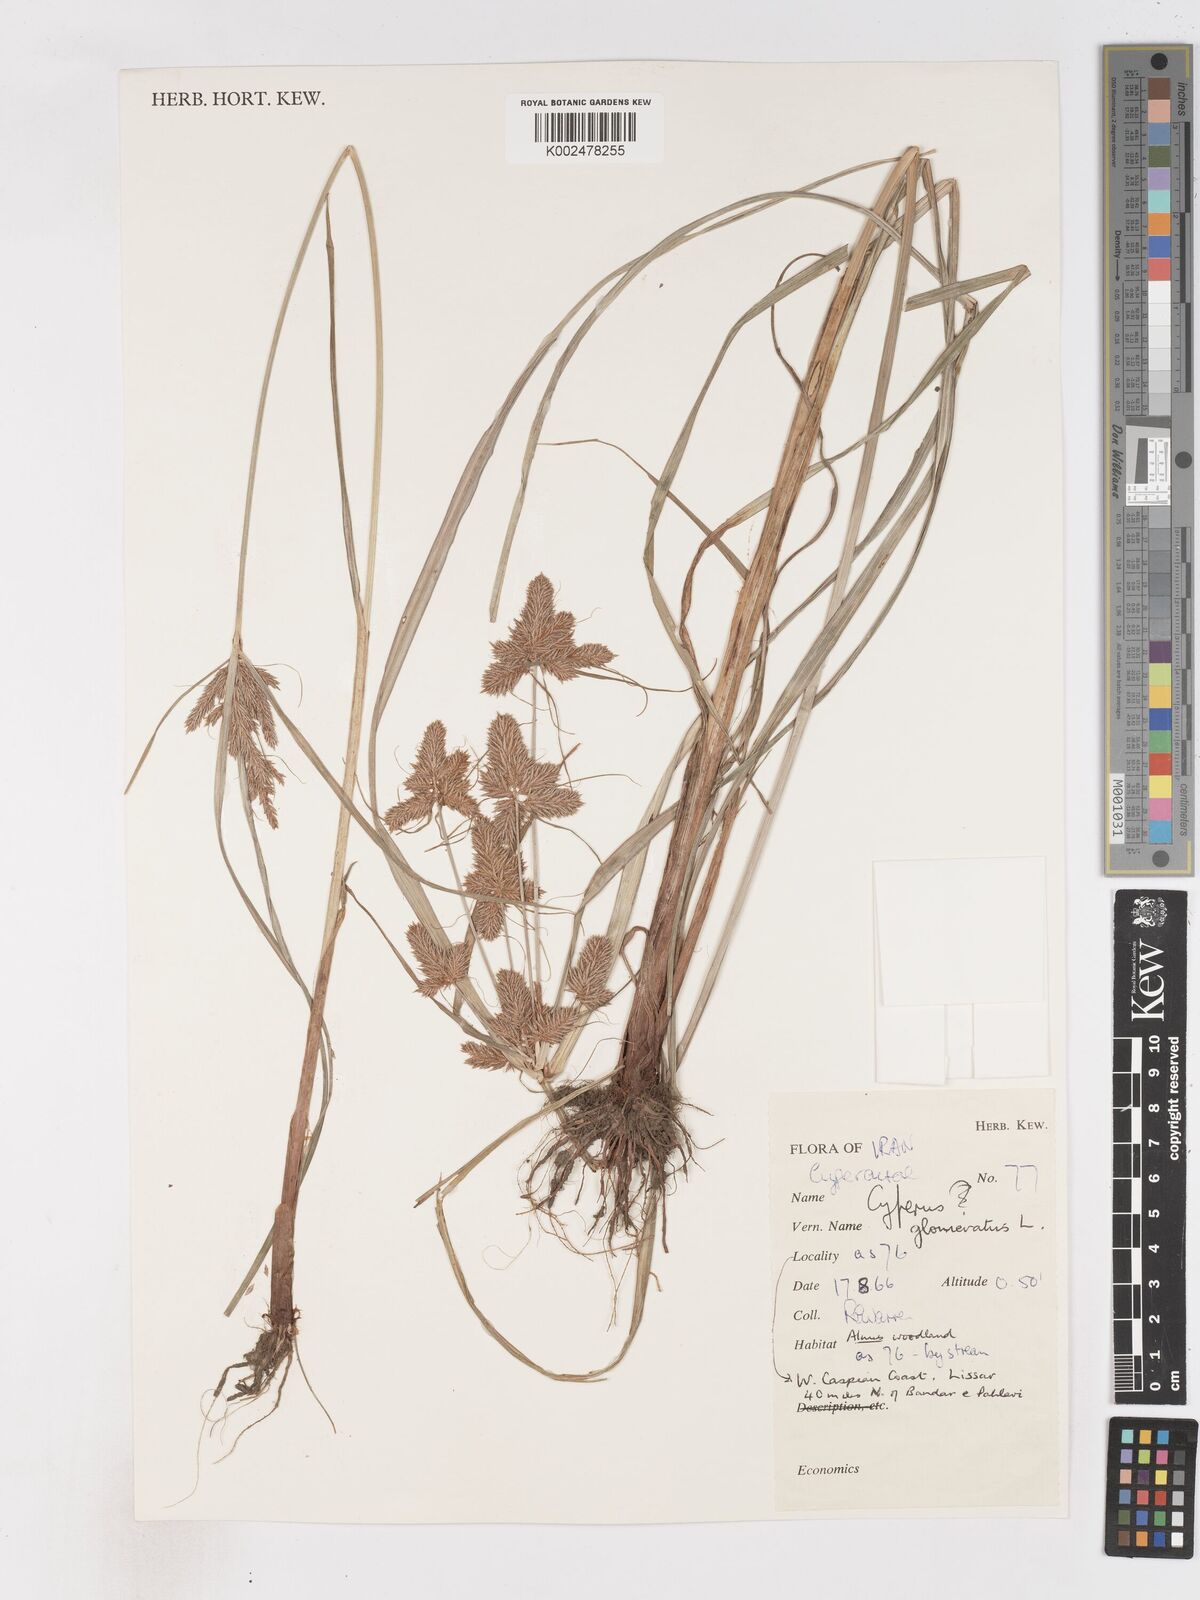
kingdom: Plantae
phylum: Tracheophyta
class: Liliopsida
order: Poales
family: Cyperaceae
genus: Cyperus
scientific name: Cyperus glomeratus
